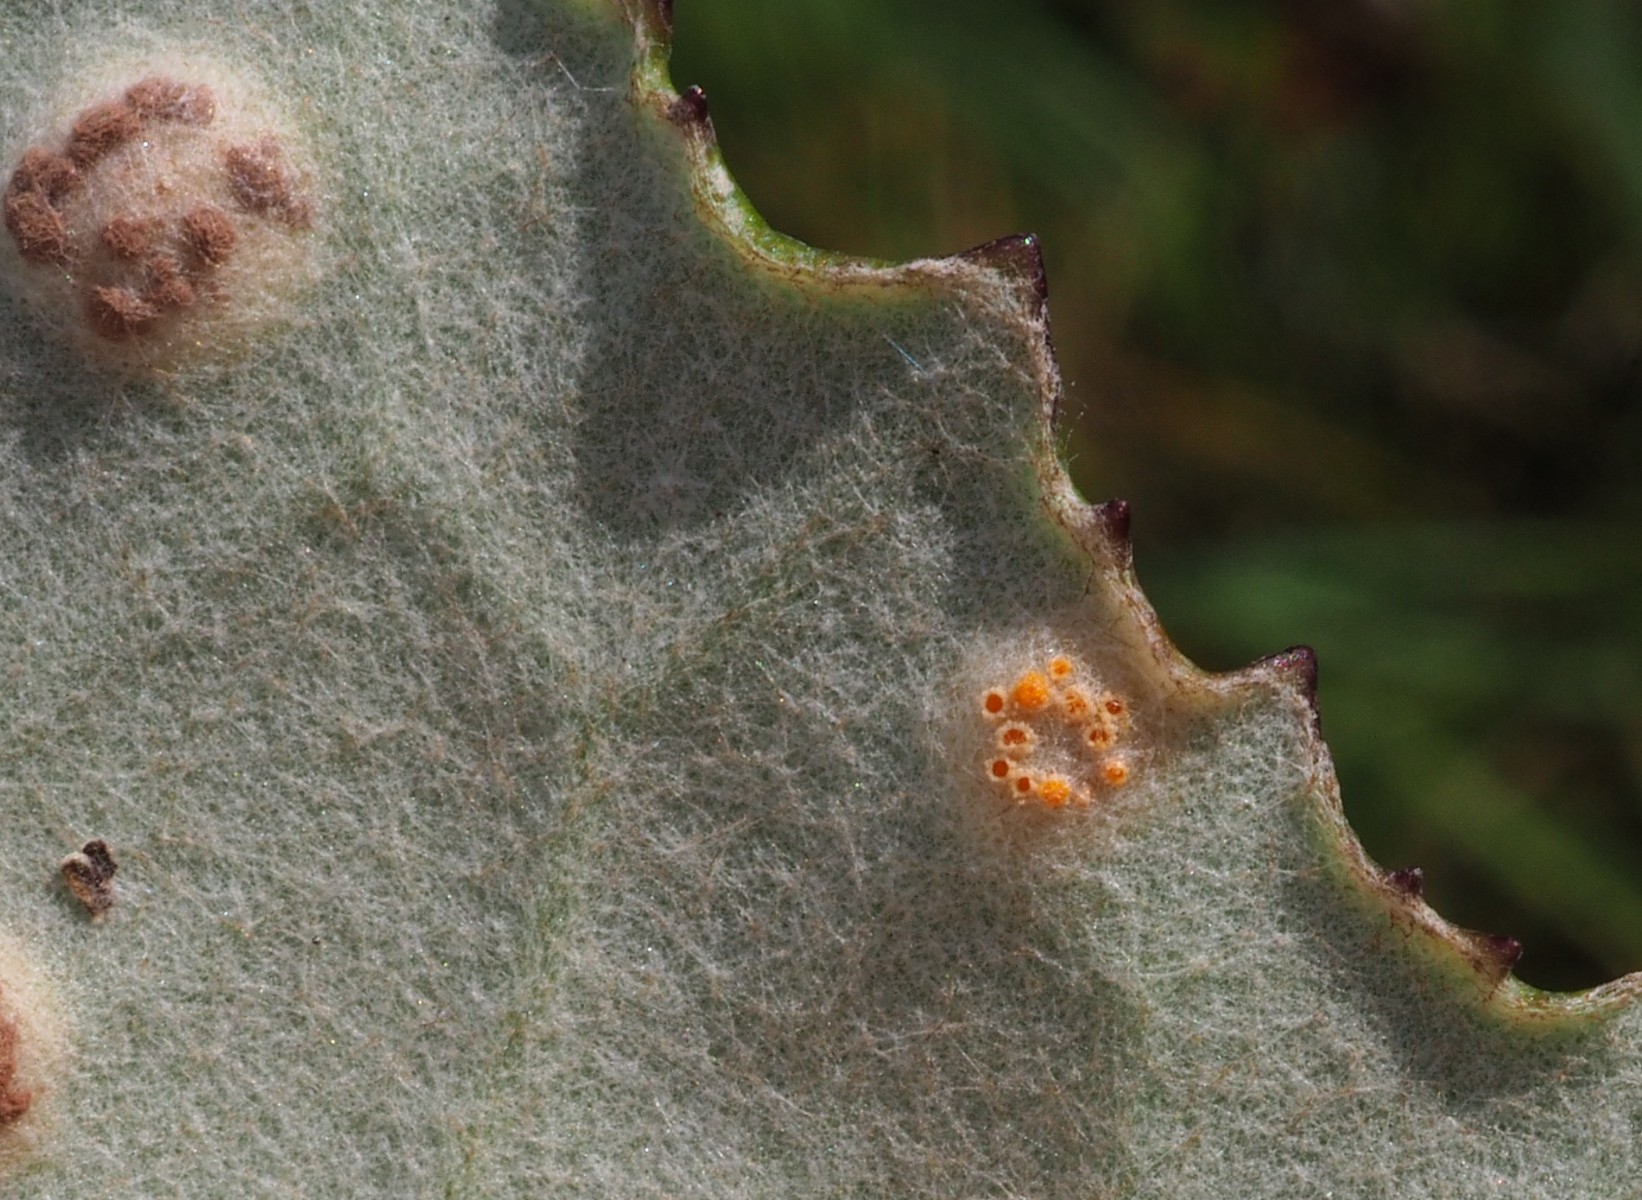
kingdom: Fungi
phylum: Basidiomycota
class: Pucciniomycetes
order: Pucciniales
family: Pucciniaceae
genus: Puccinia
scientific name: Puccinia poarum
